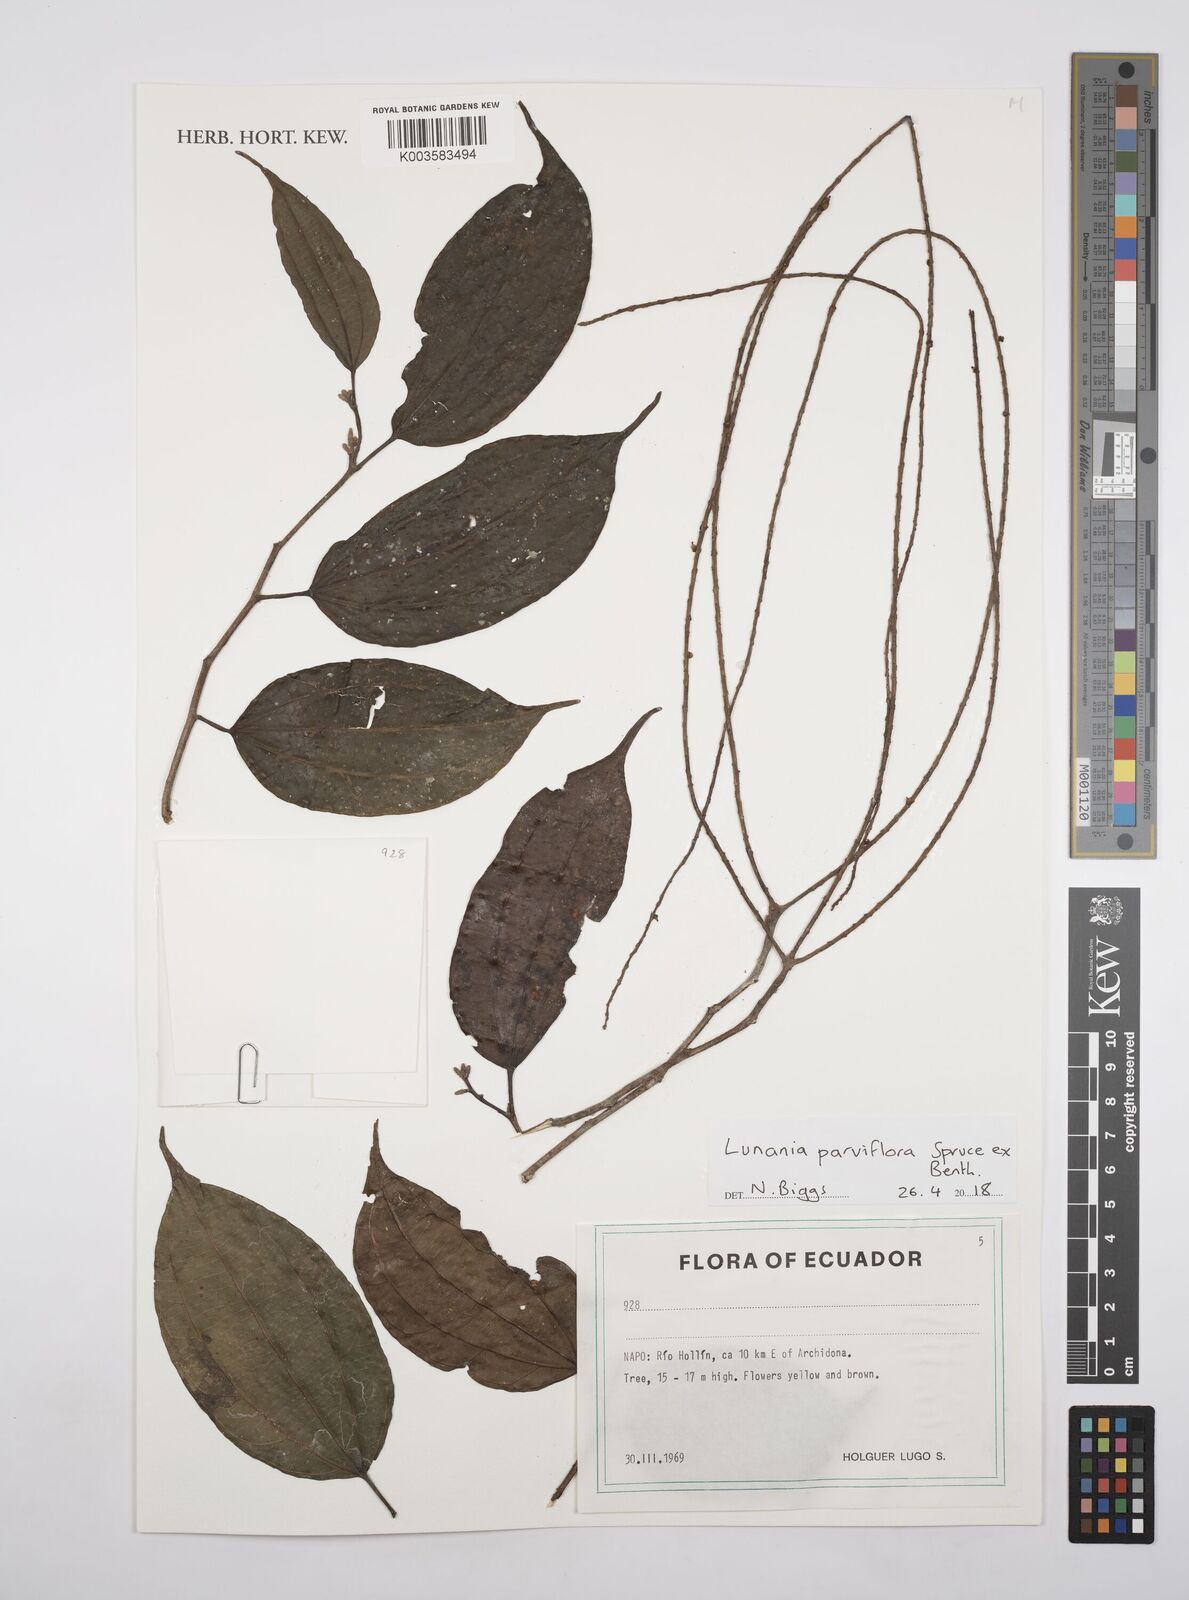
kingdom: Plantae
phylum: Tracheophyta
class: Magnoliopsida
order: Malpighiales
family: Salicaceae
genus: Lunania
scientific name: Lunania parviflora
